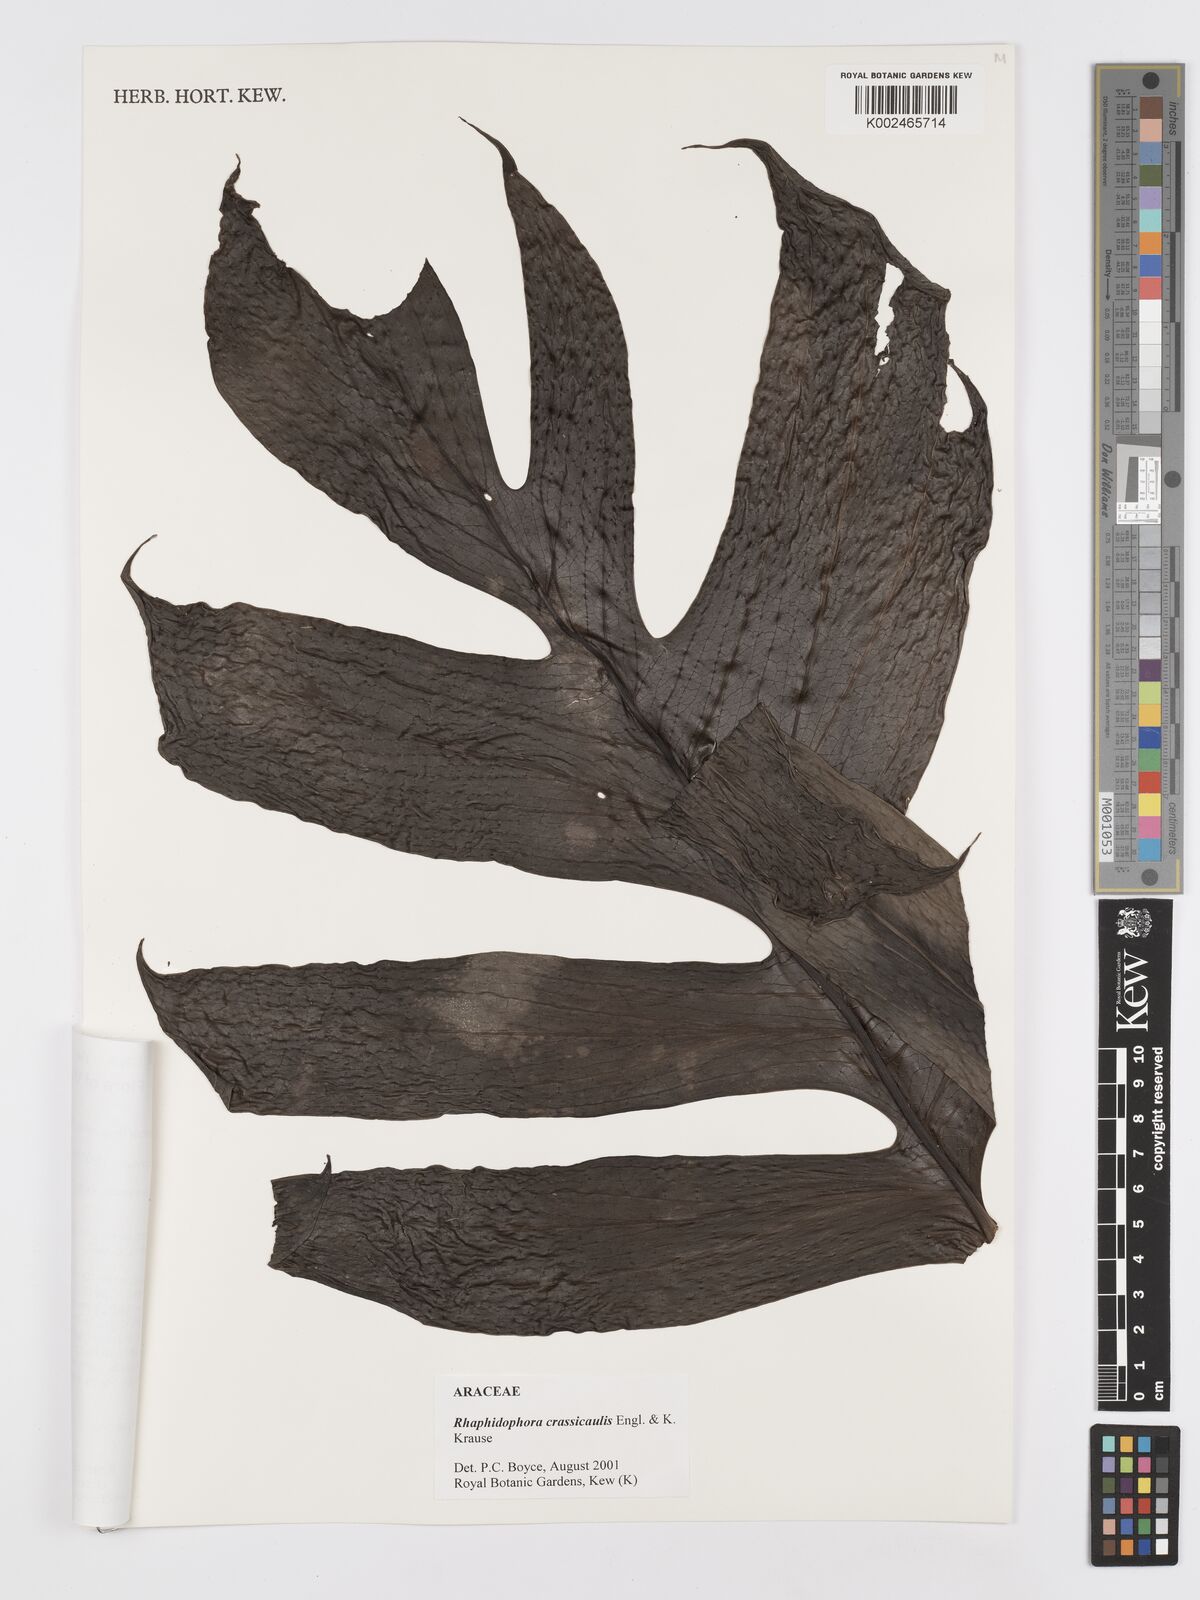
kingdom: Plantae
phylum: Tracheophyta
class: Liliopsida
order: Alismatales
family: Araceae
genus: Rhaphidophora
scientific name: Rhaphidophora crassicaulis
